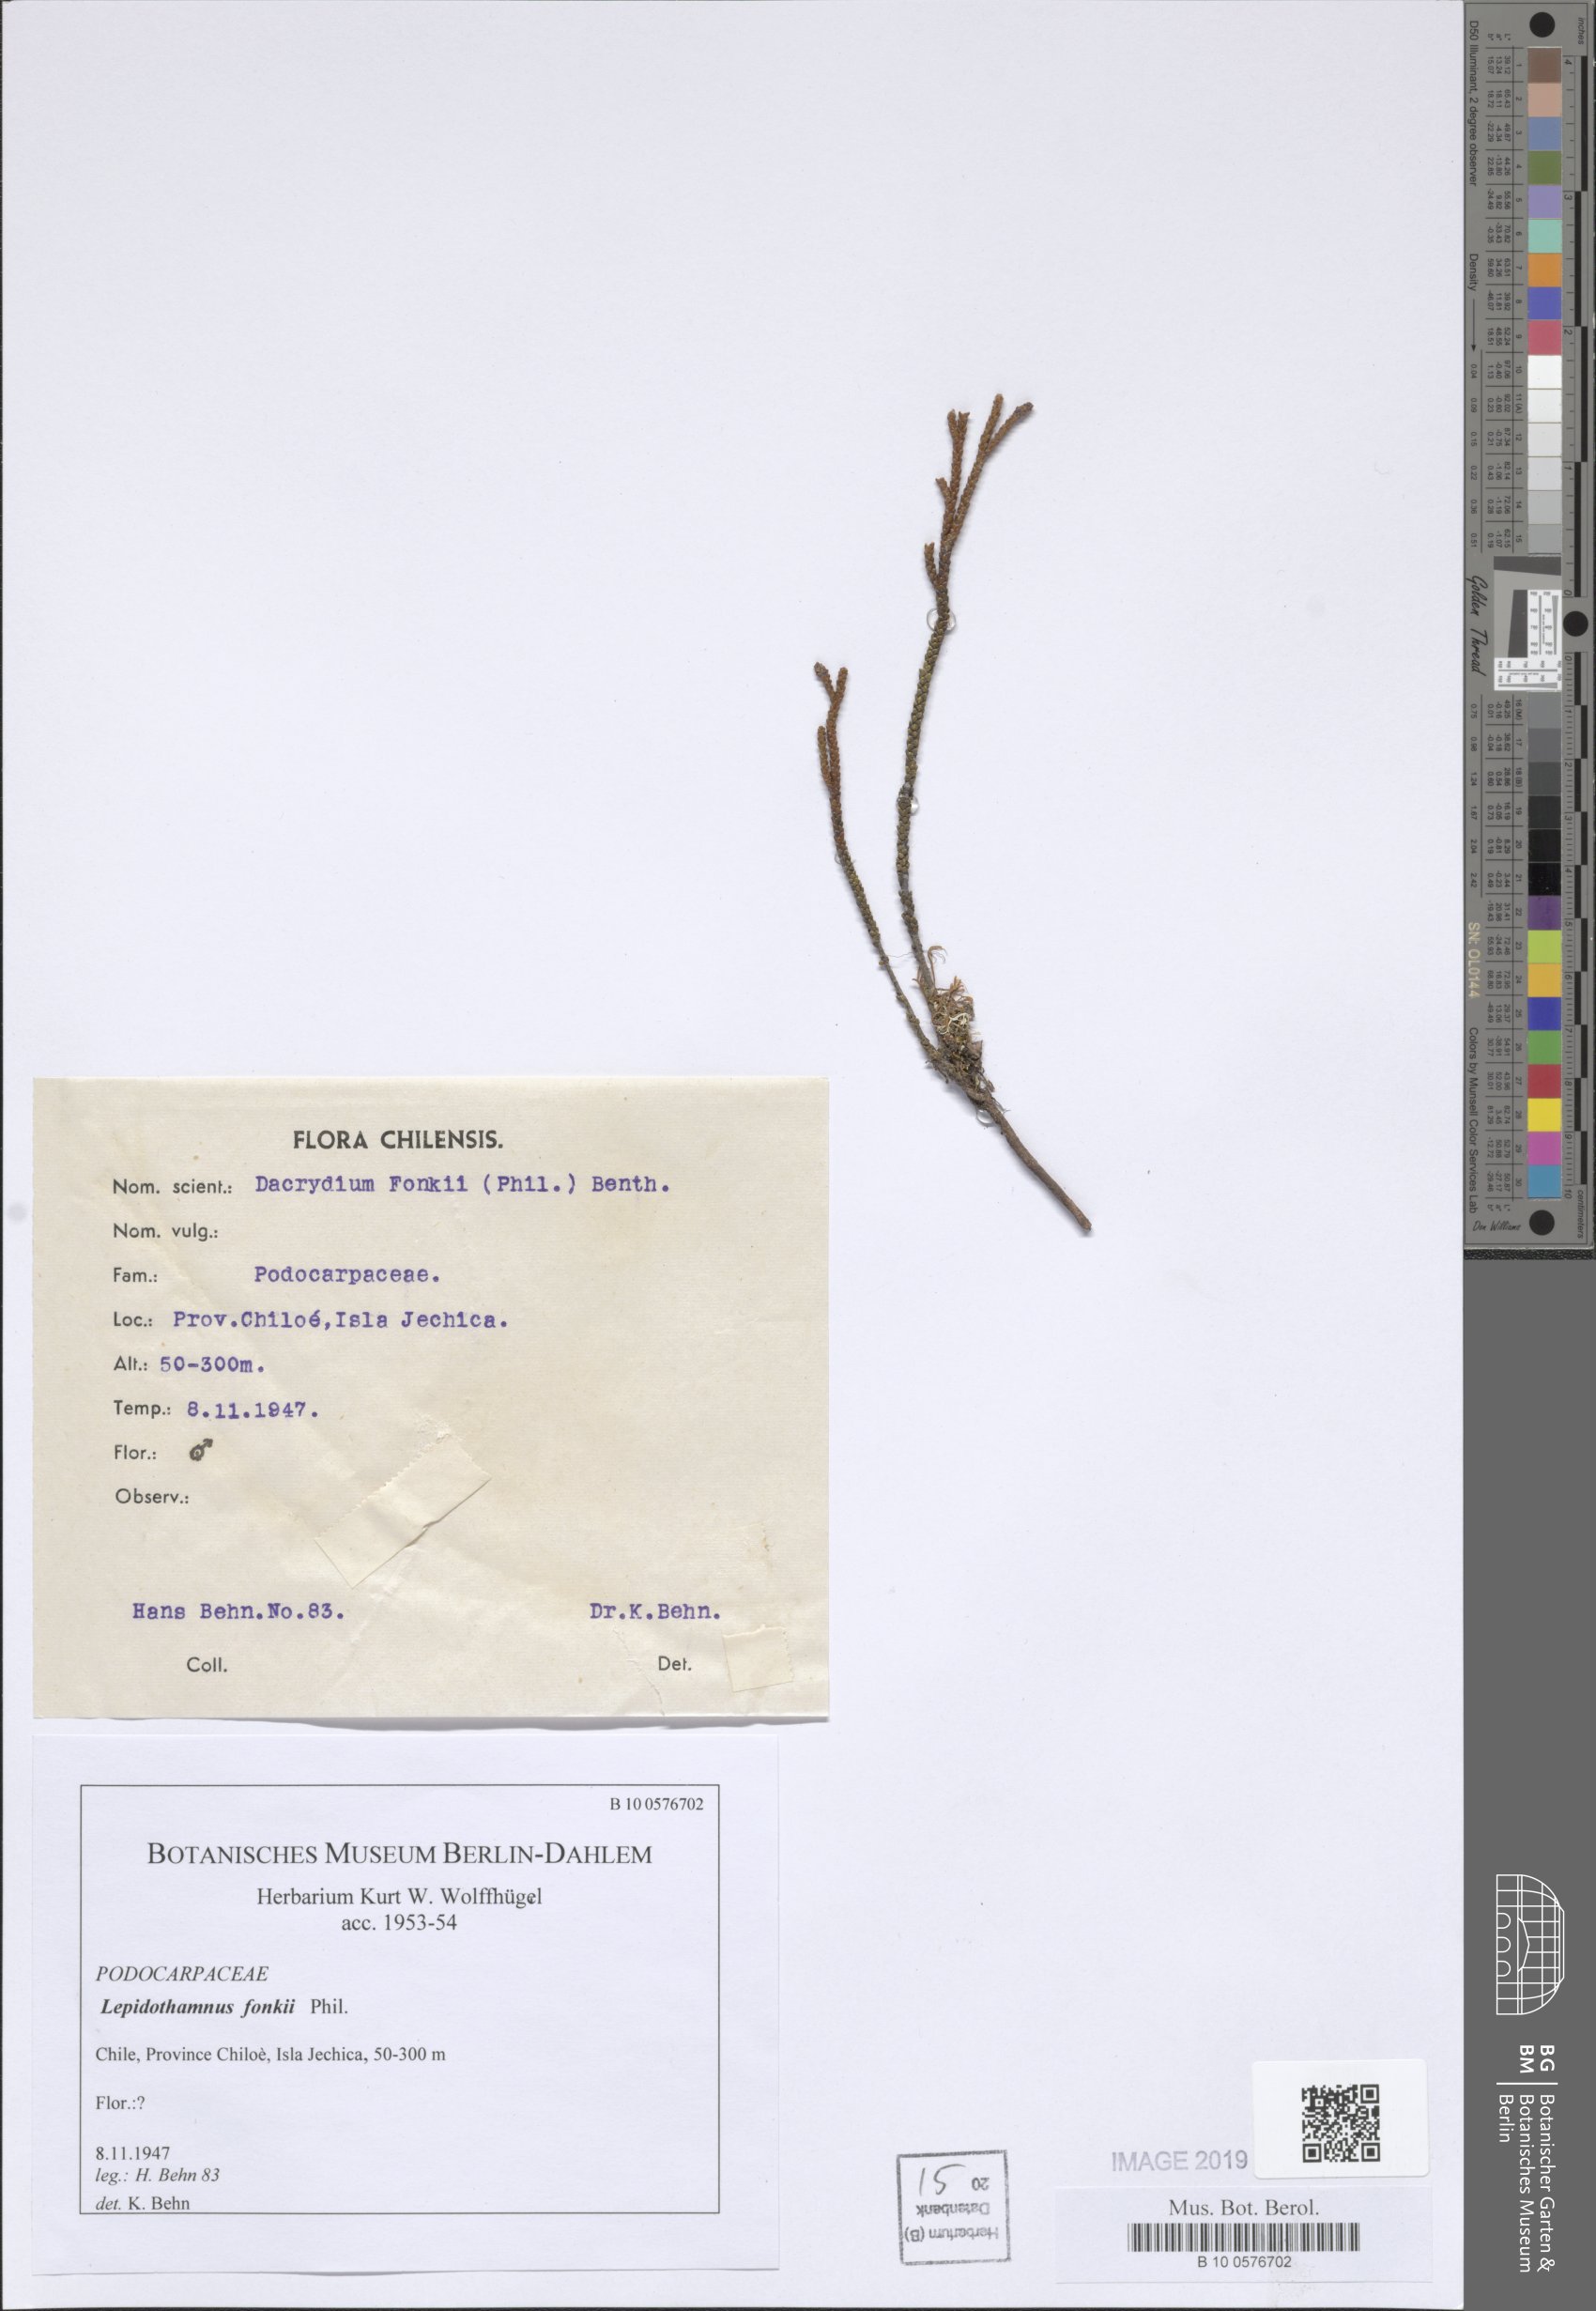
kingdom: Plantae
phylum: Tracheophyta
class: Pinopsida
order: Pinales
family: Podocarpaceae
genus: Lepidothamnus
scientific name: Lepidothamnus fonkii
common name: Chilean rimu
